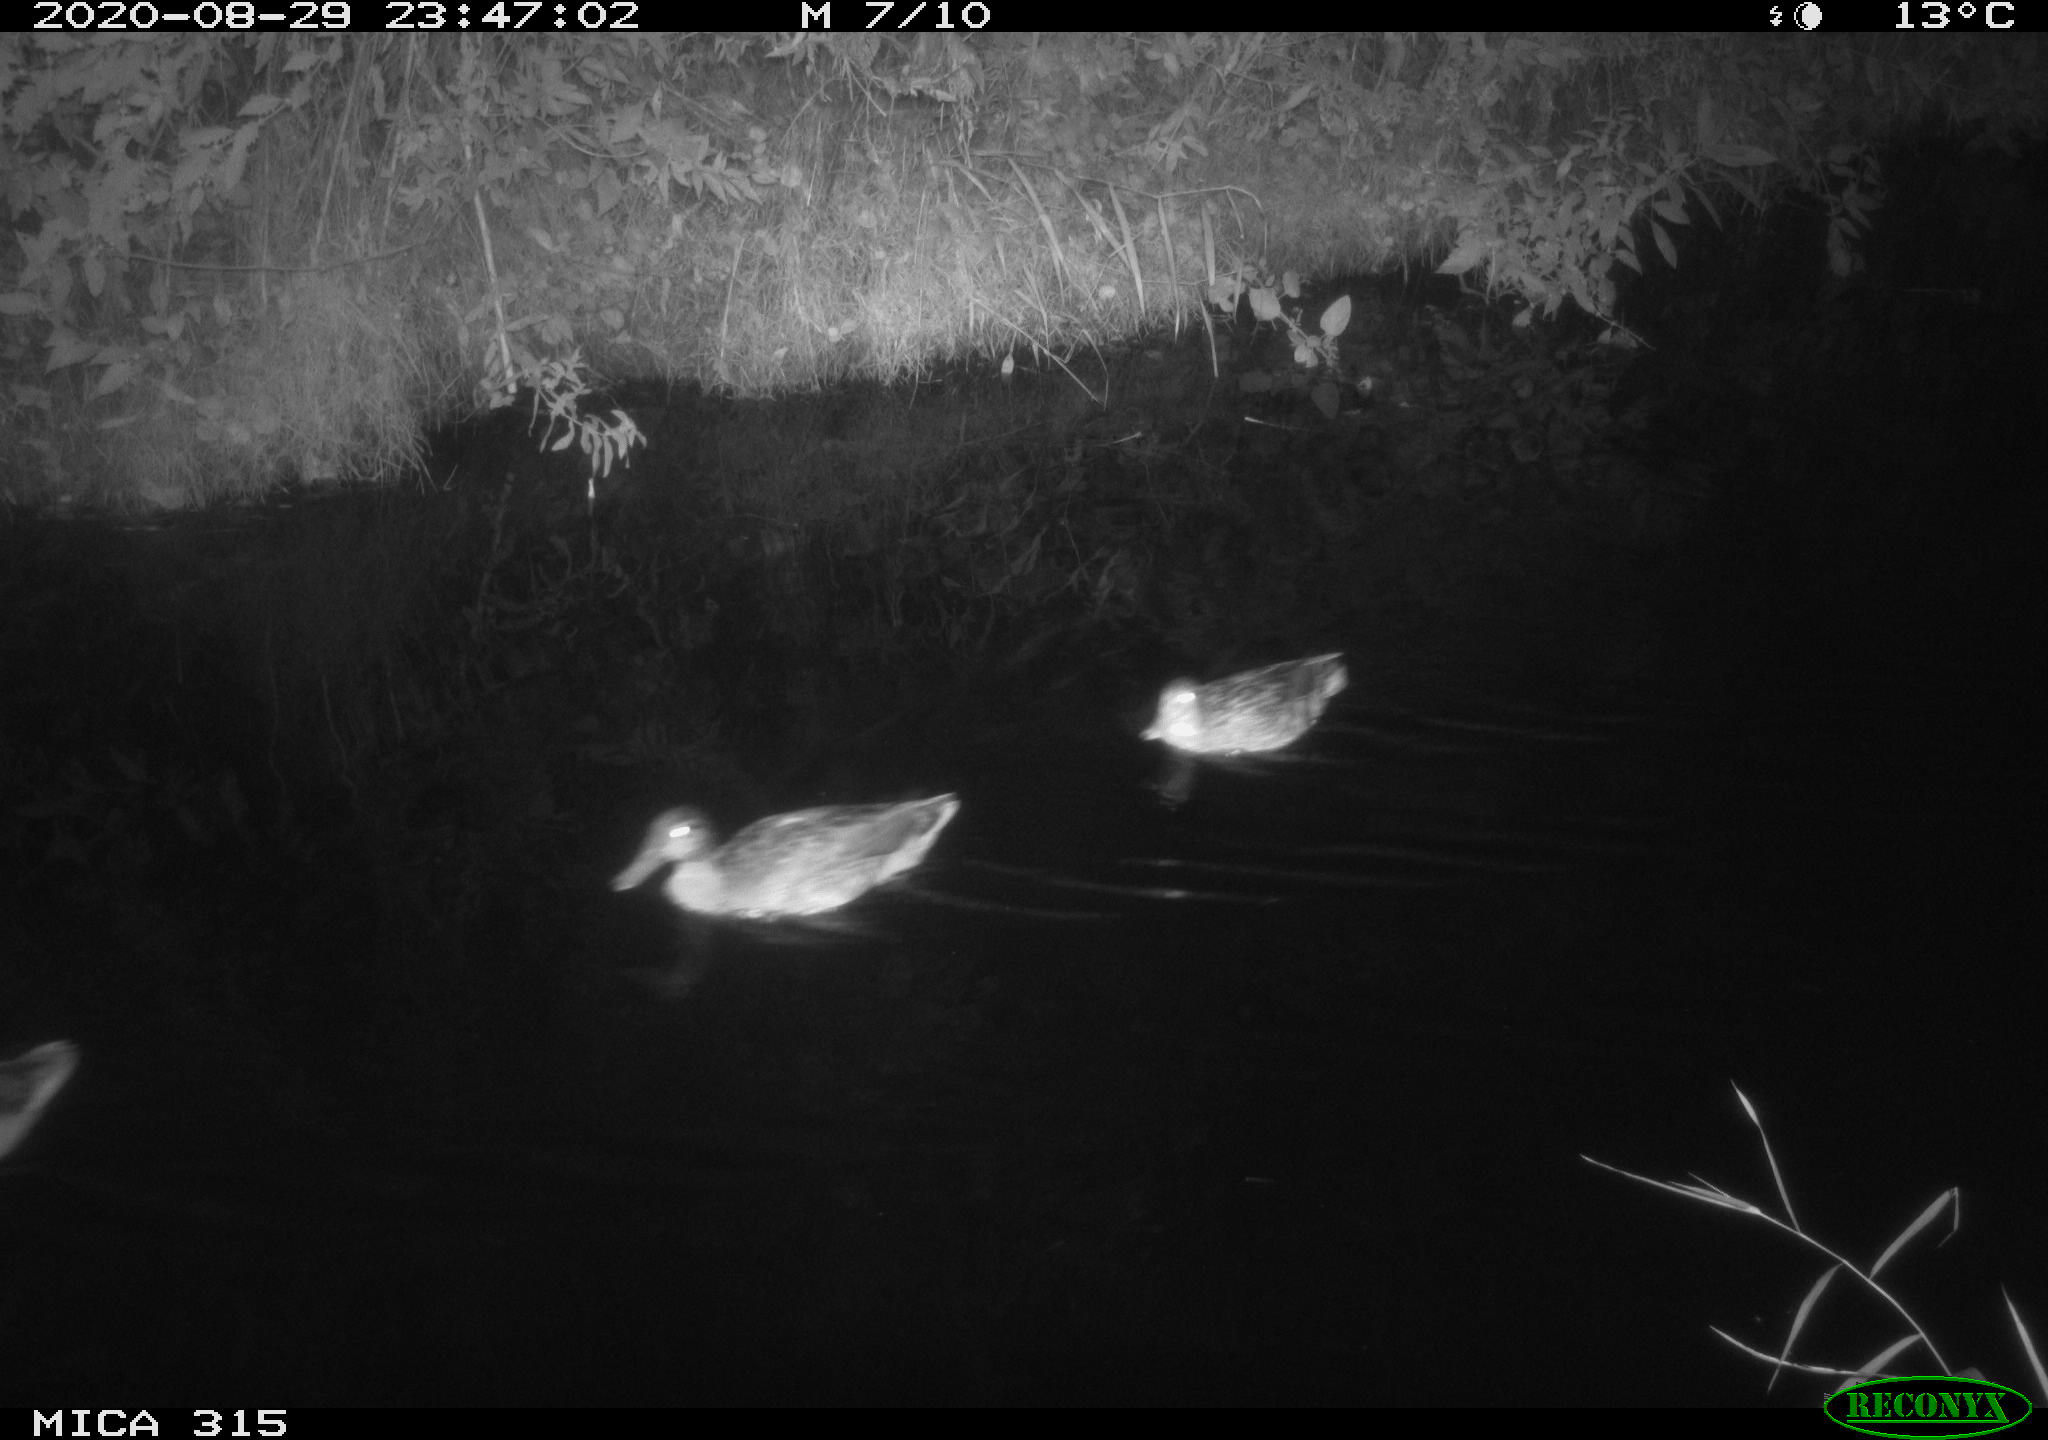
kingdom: Animalia
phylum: Chordata
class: Aves
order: Anseriformes
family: Anatidae
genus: Anas
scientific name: Anas platyrhynchos
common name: Mallard
